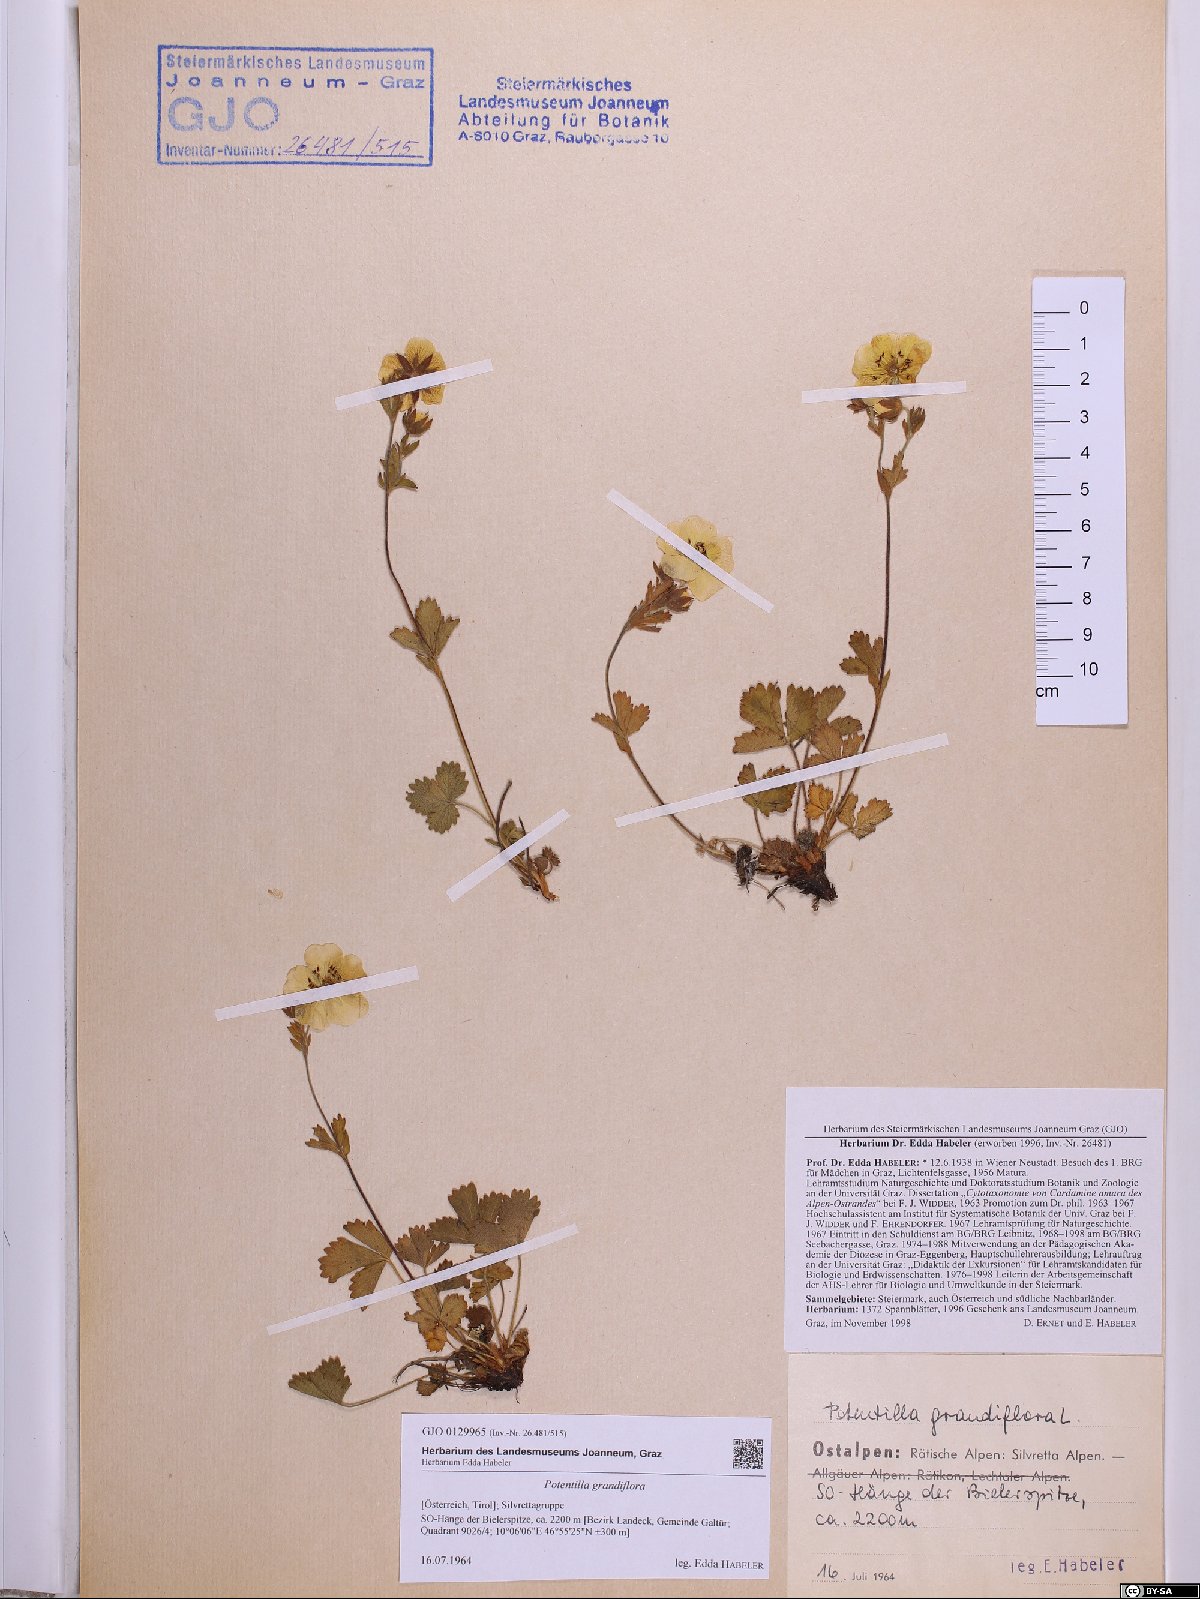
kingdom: Plantae
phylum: Tracheophyta
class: Magnoliopsida
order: Rosales
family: Rosaceae
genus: Potentilla
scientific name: Potentilla grandiflora
